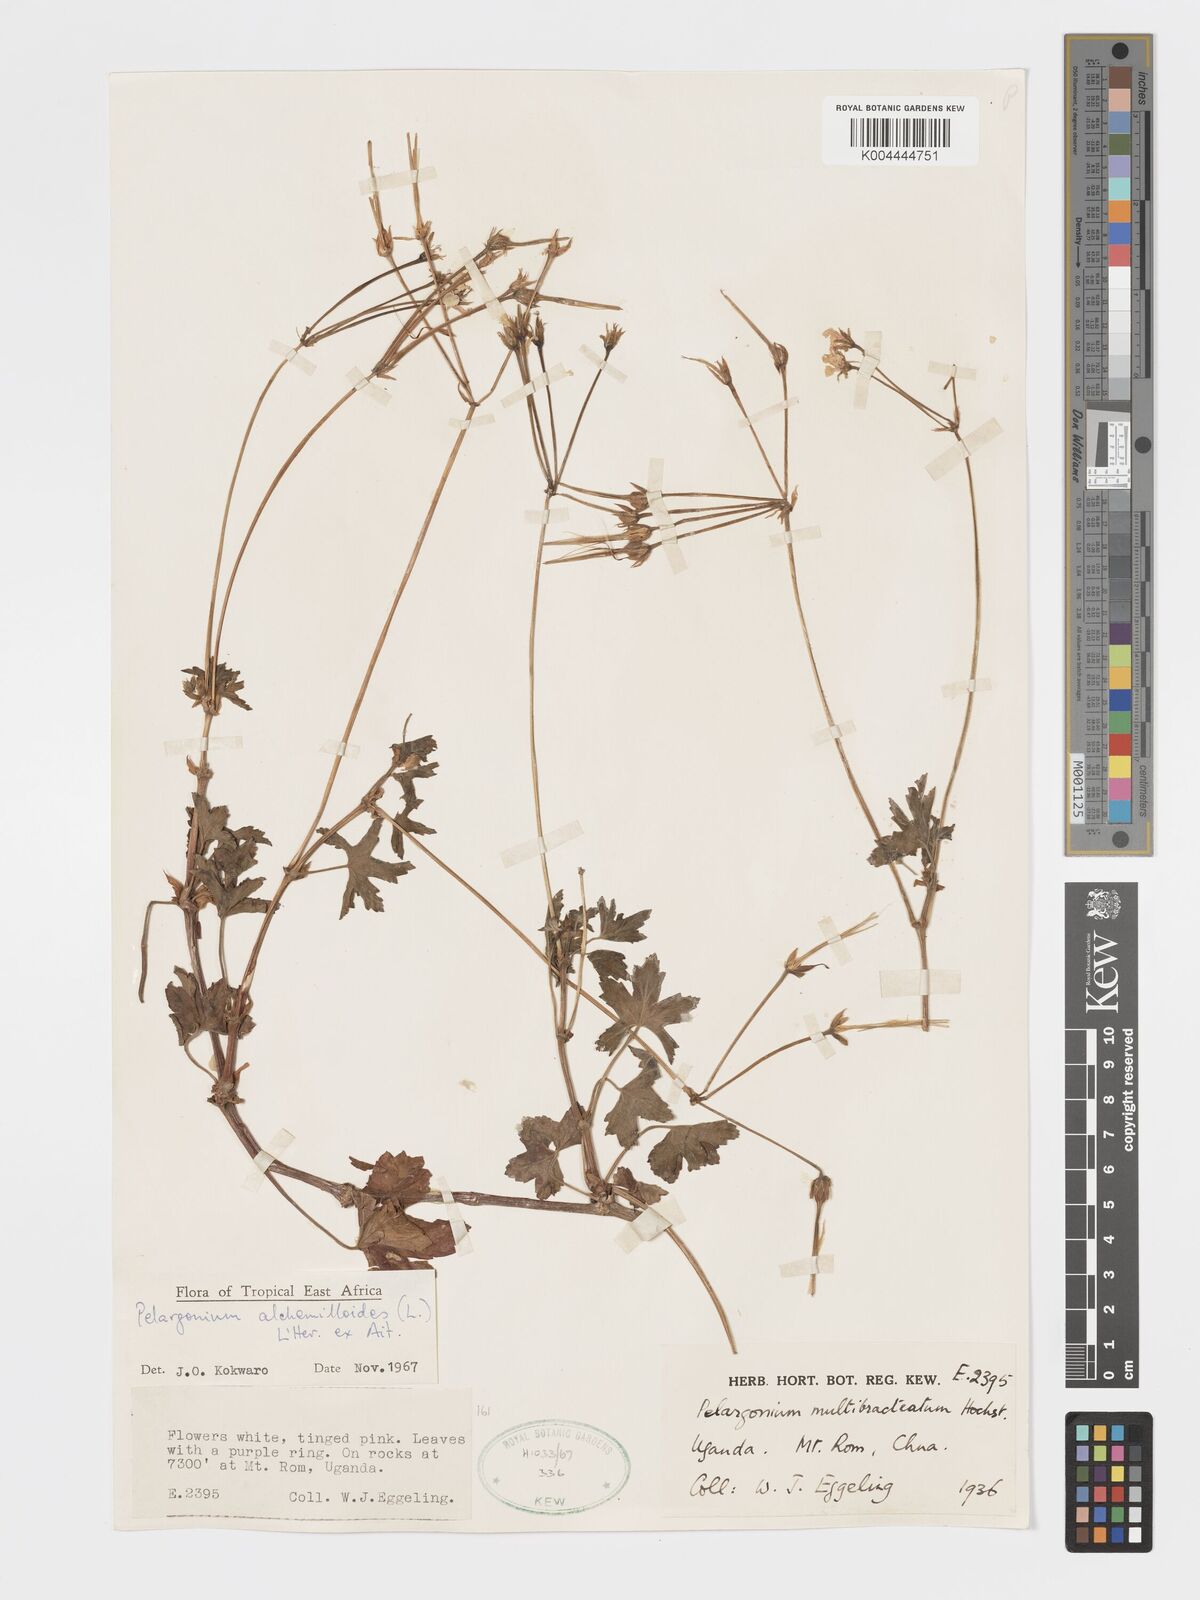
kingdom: Plantae
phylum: Tracheophyta
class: Magnoliopsida
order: Geraniales
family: Geraniaceae
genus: Pelargonium
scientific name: Pelargonium alchemilloides
